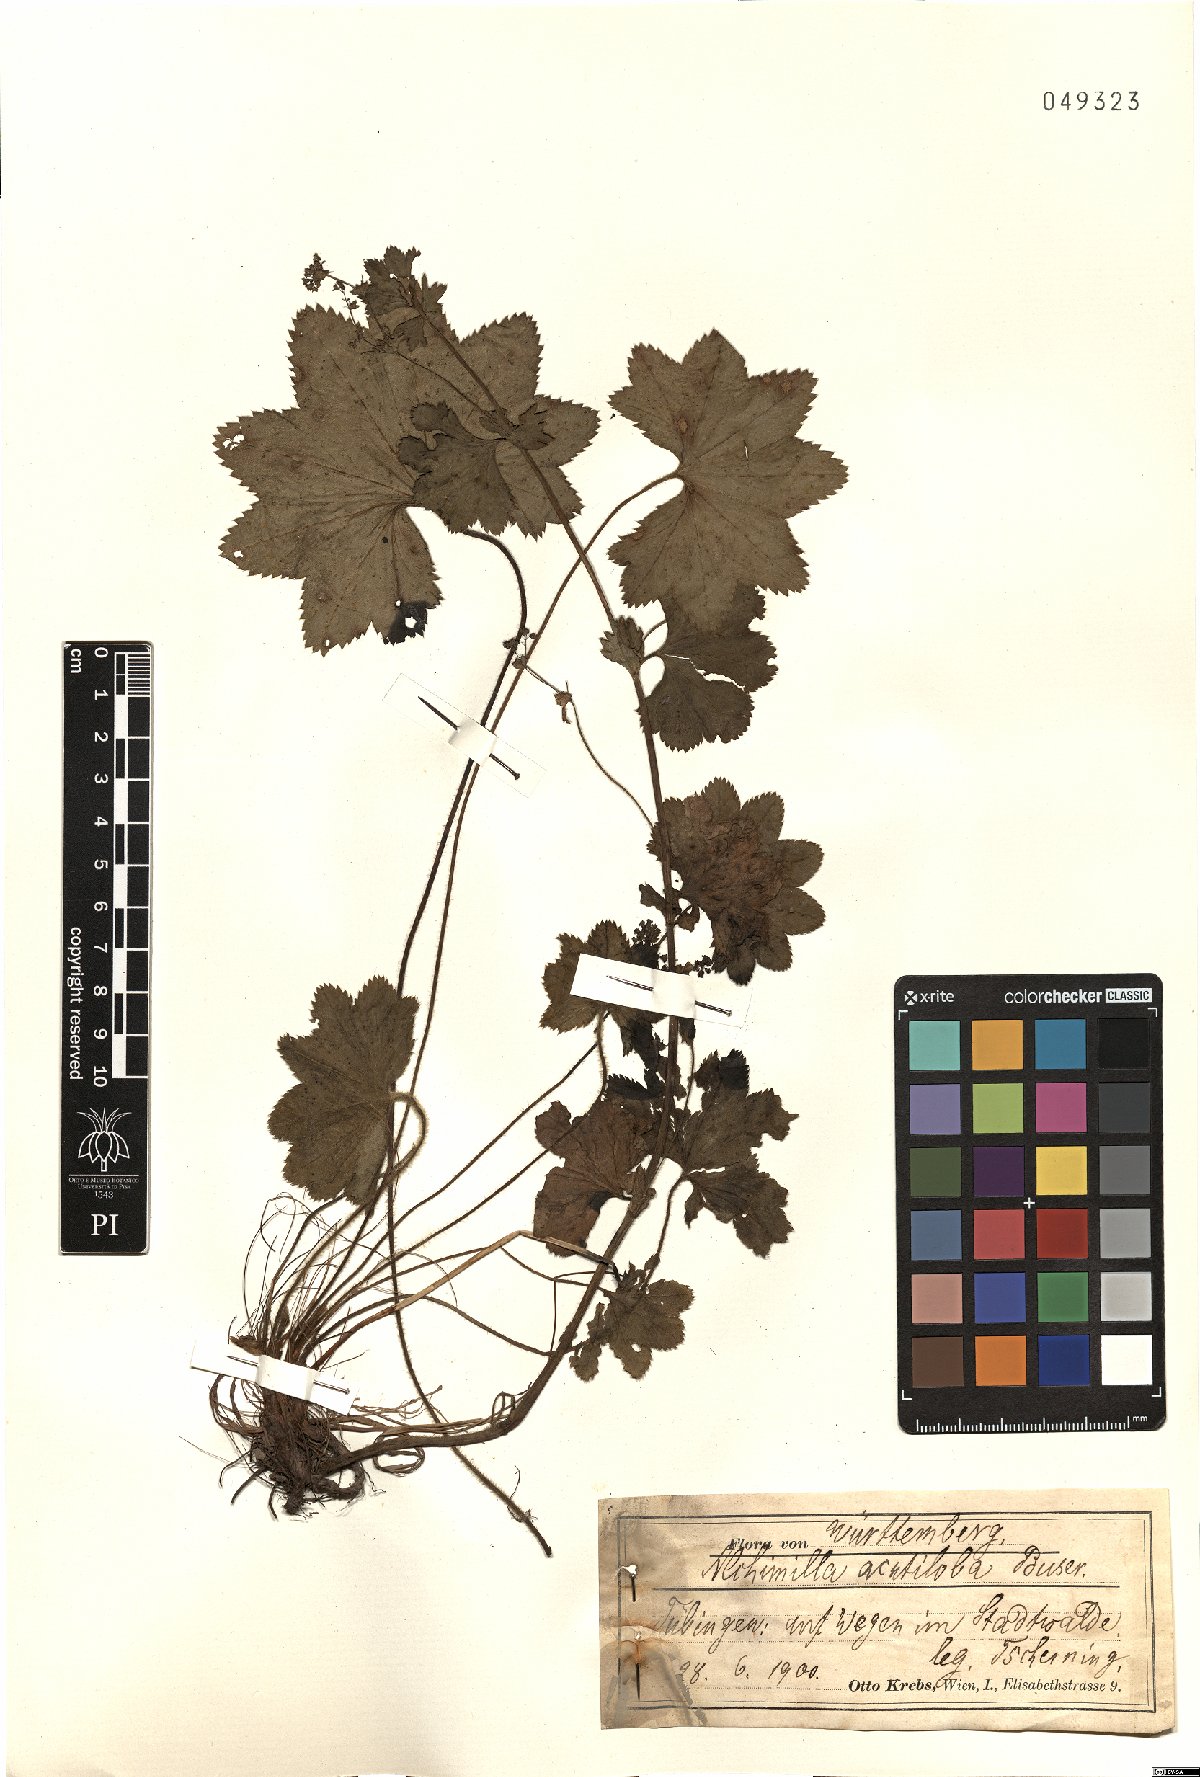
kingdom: Plantae
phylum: Tracheophyta
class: Magnoliopsida
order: Rosales
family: Rosaceae
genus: Alchemilla
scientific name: Alchemilla vulgaris
